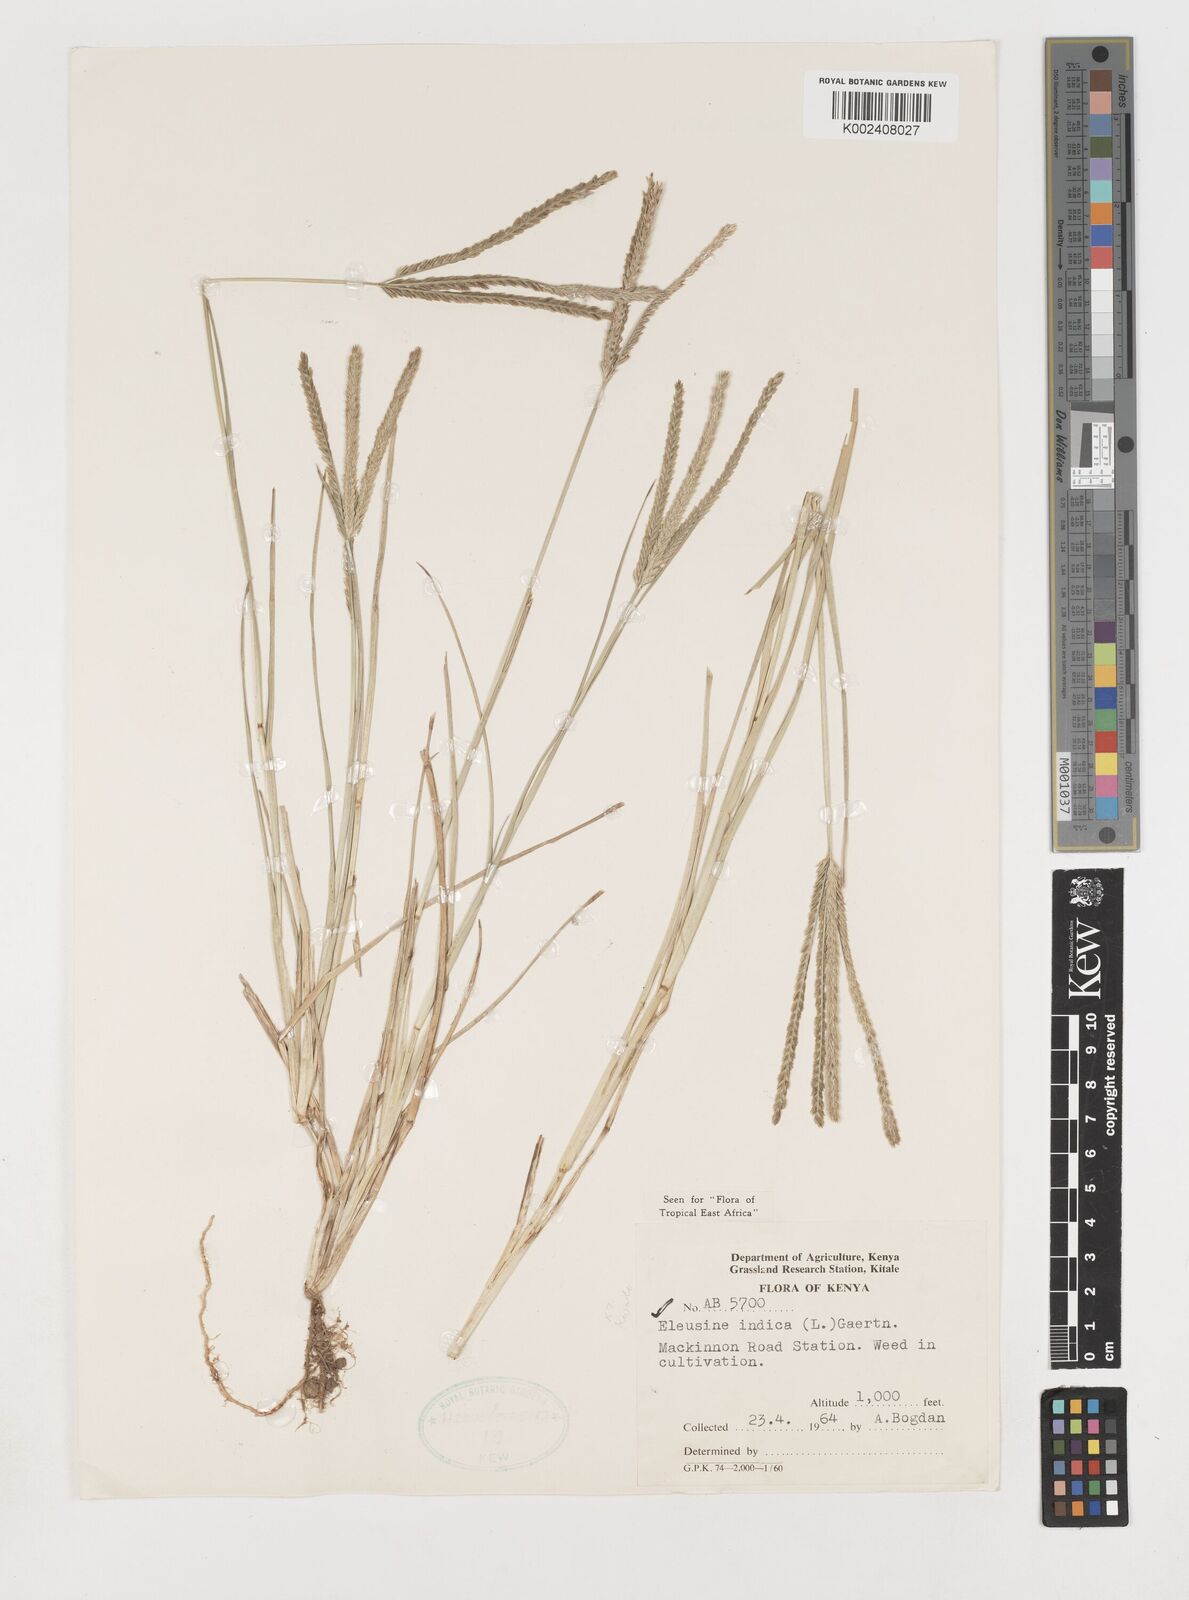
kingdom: Plantae
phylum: Tracheophyta
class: Liliopsida
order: Poales
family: Poaceae
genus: Eleusine
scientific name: Eleusine indica
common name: Yard-grass
